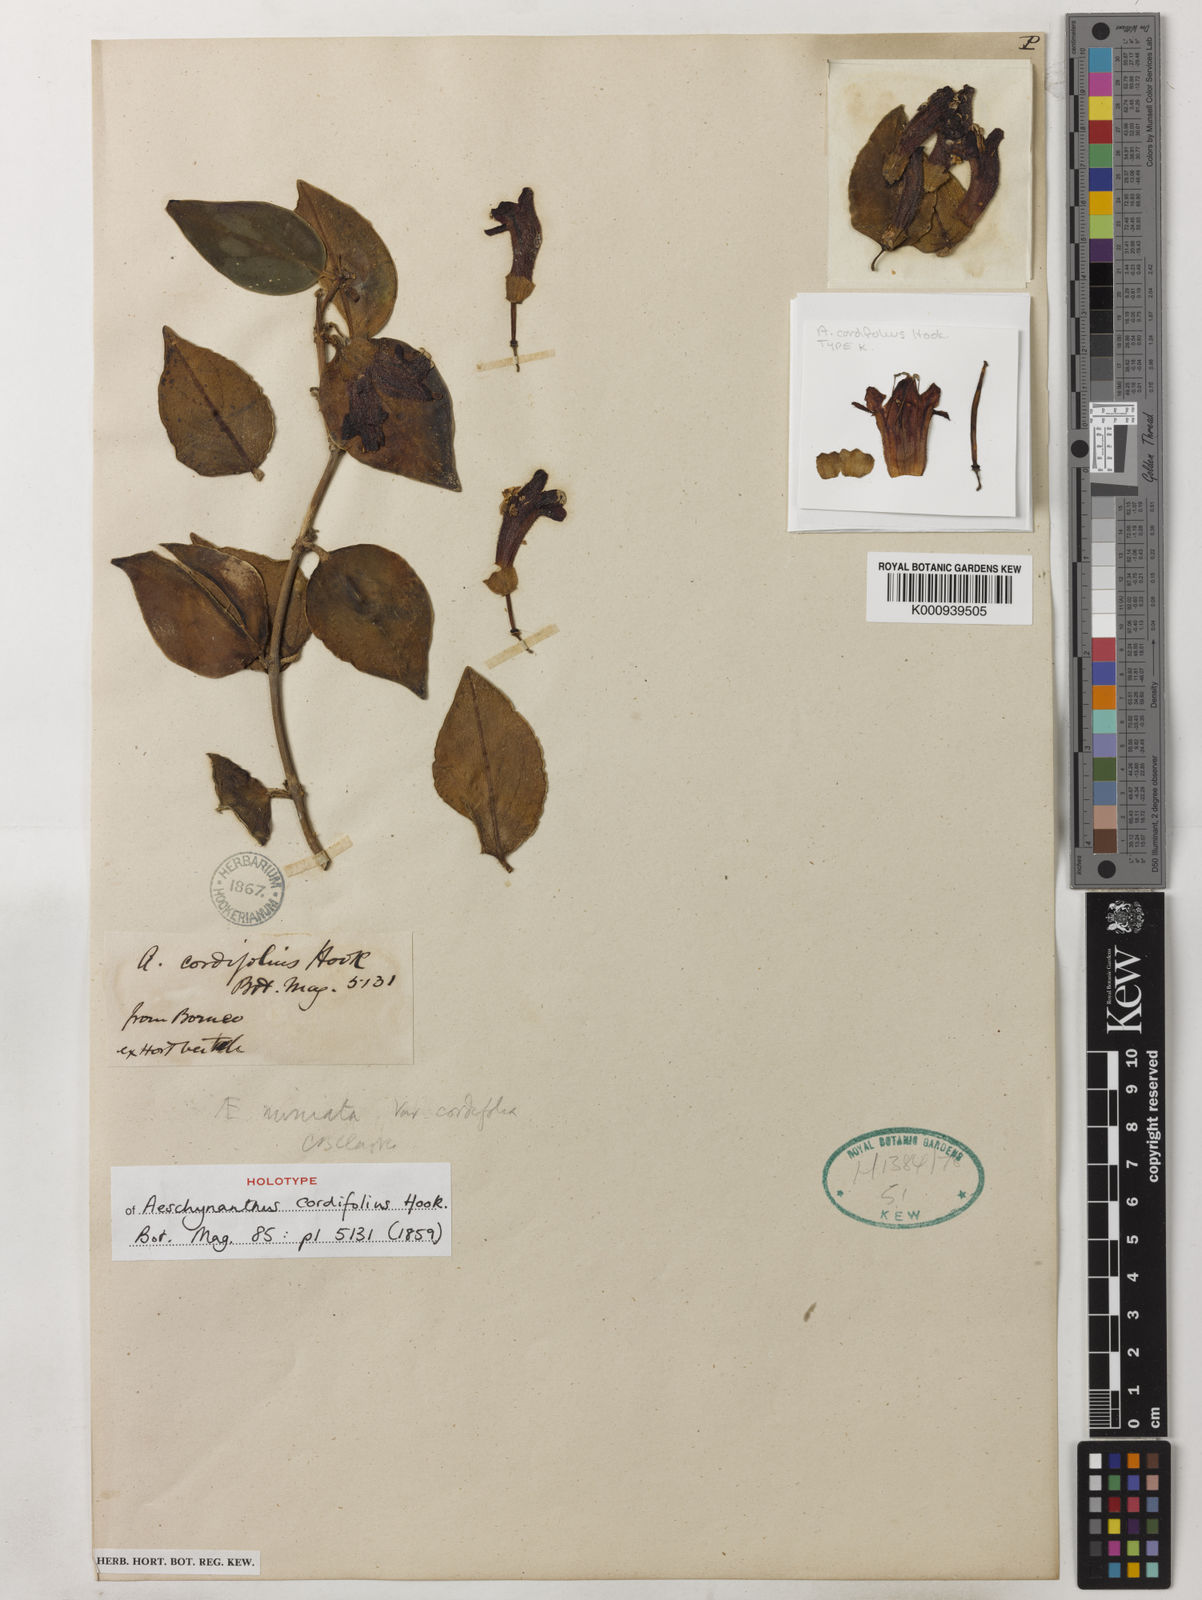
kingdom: Plantae
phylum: Tracheophyta
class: Magnoliopsida
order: Lamiales
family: Gesneriaceae
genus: Aeschynanthus
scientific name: Aeschynanthus cordifolius
